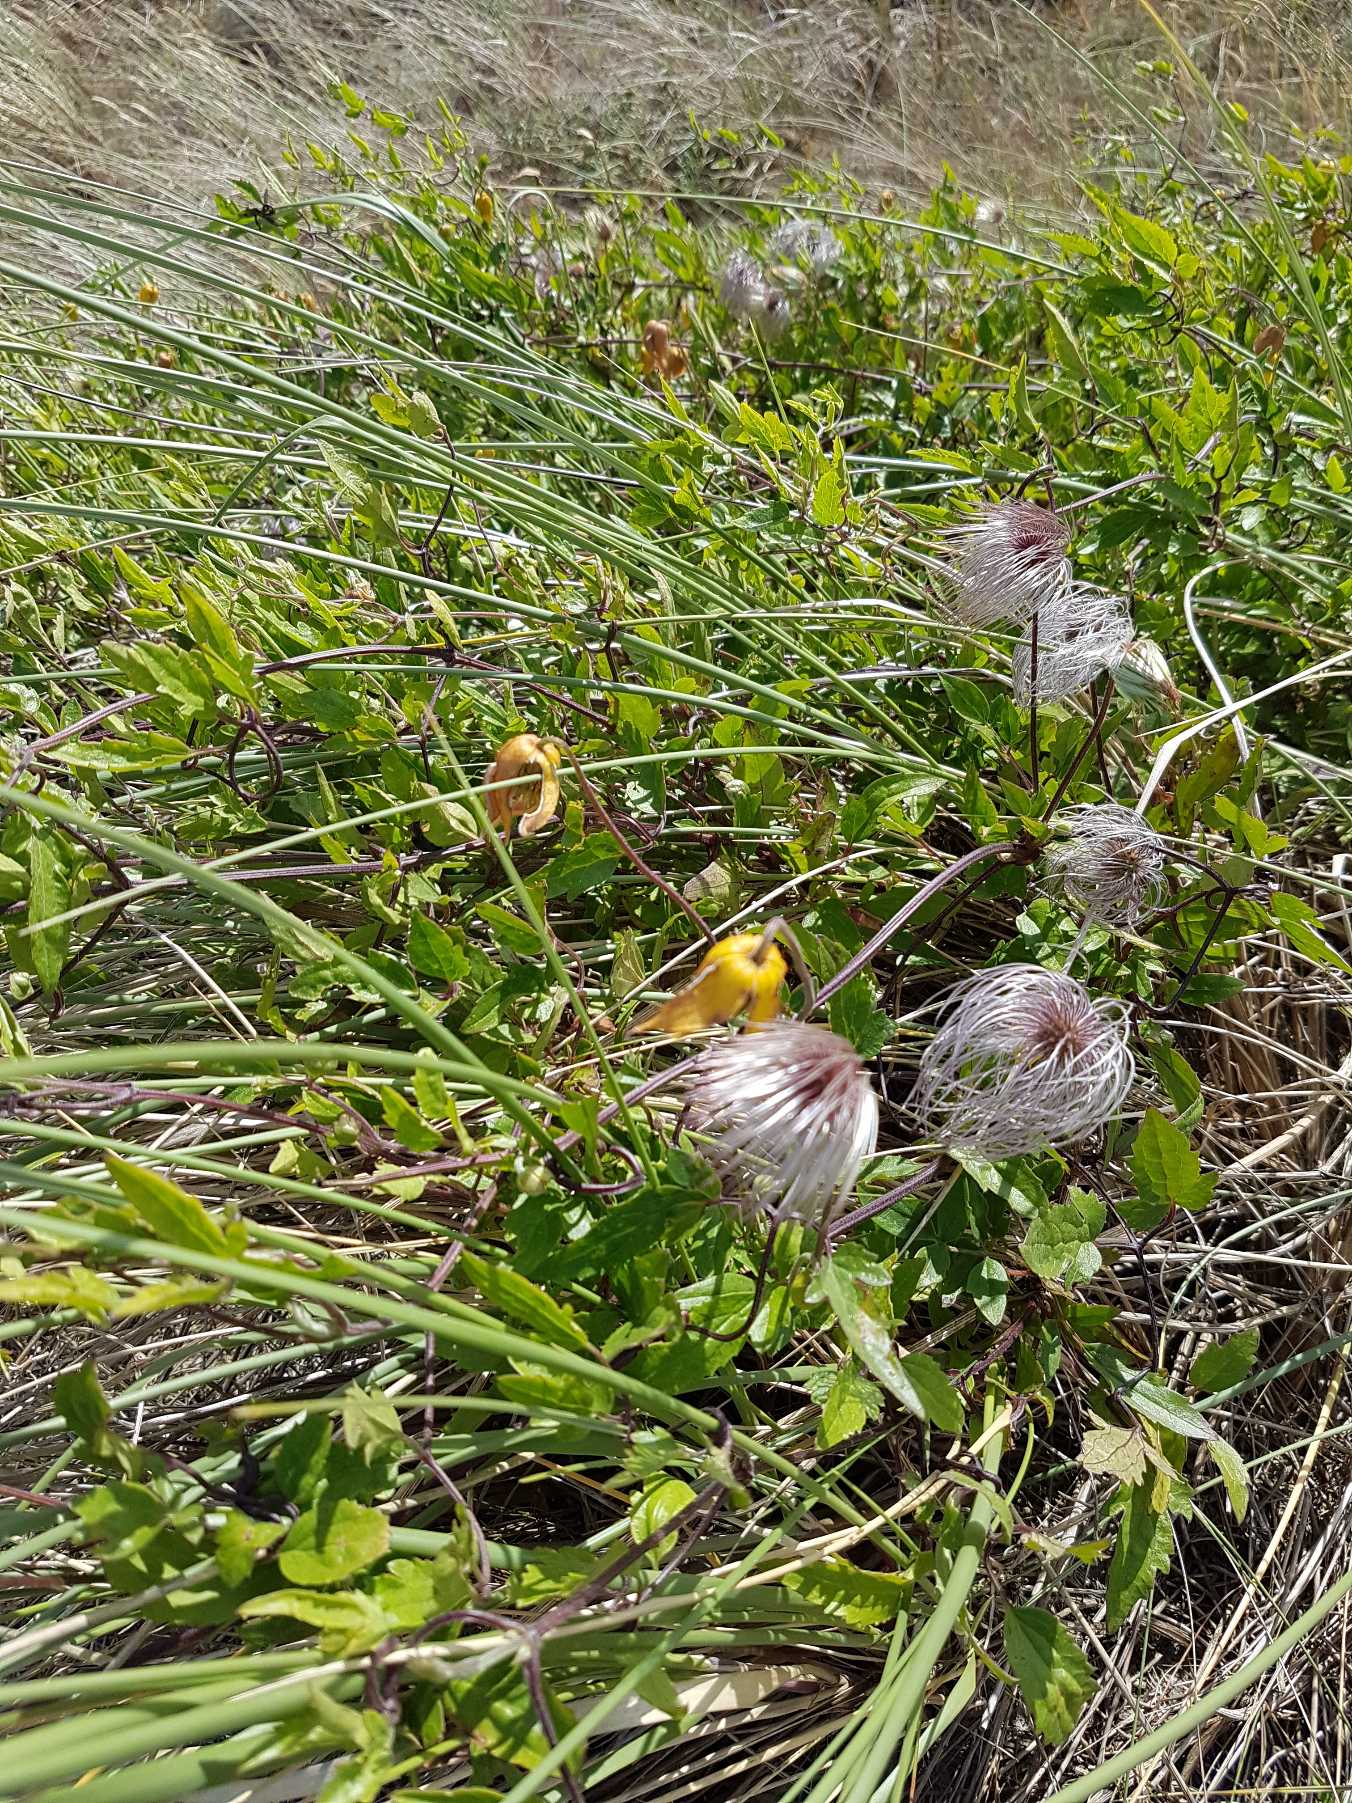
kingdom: Plantae
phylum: Tracheophyta
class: Magnoliopsida
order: Ranunculales
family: Ranunculaceae
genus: Clematis
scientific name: Clematis tangutica
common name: Gul skovranke
